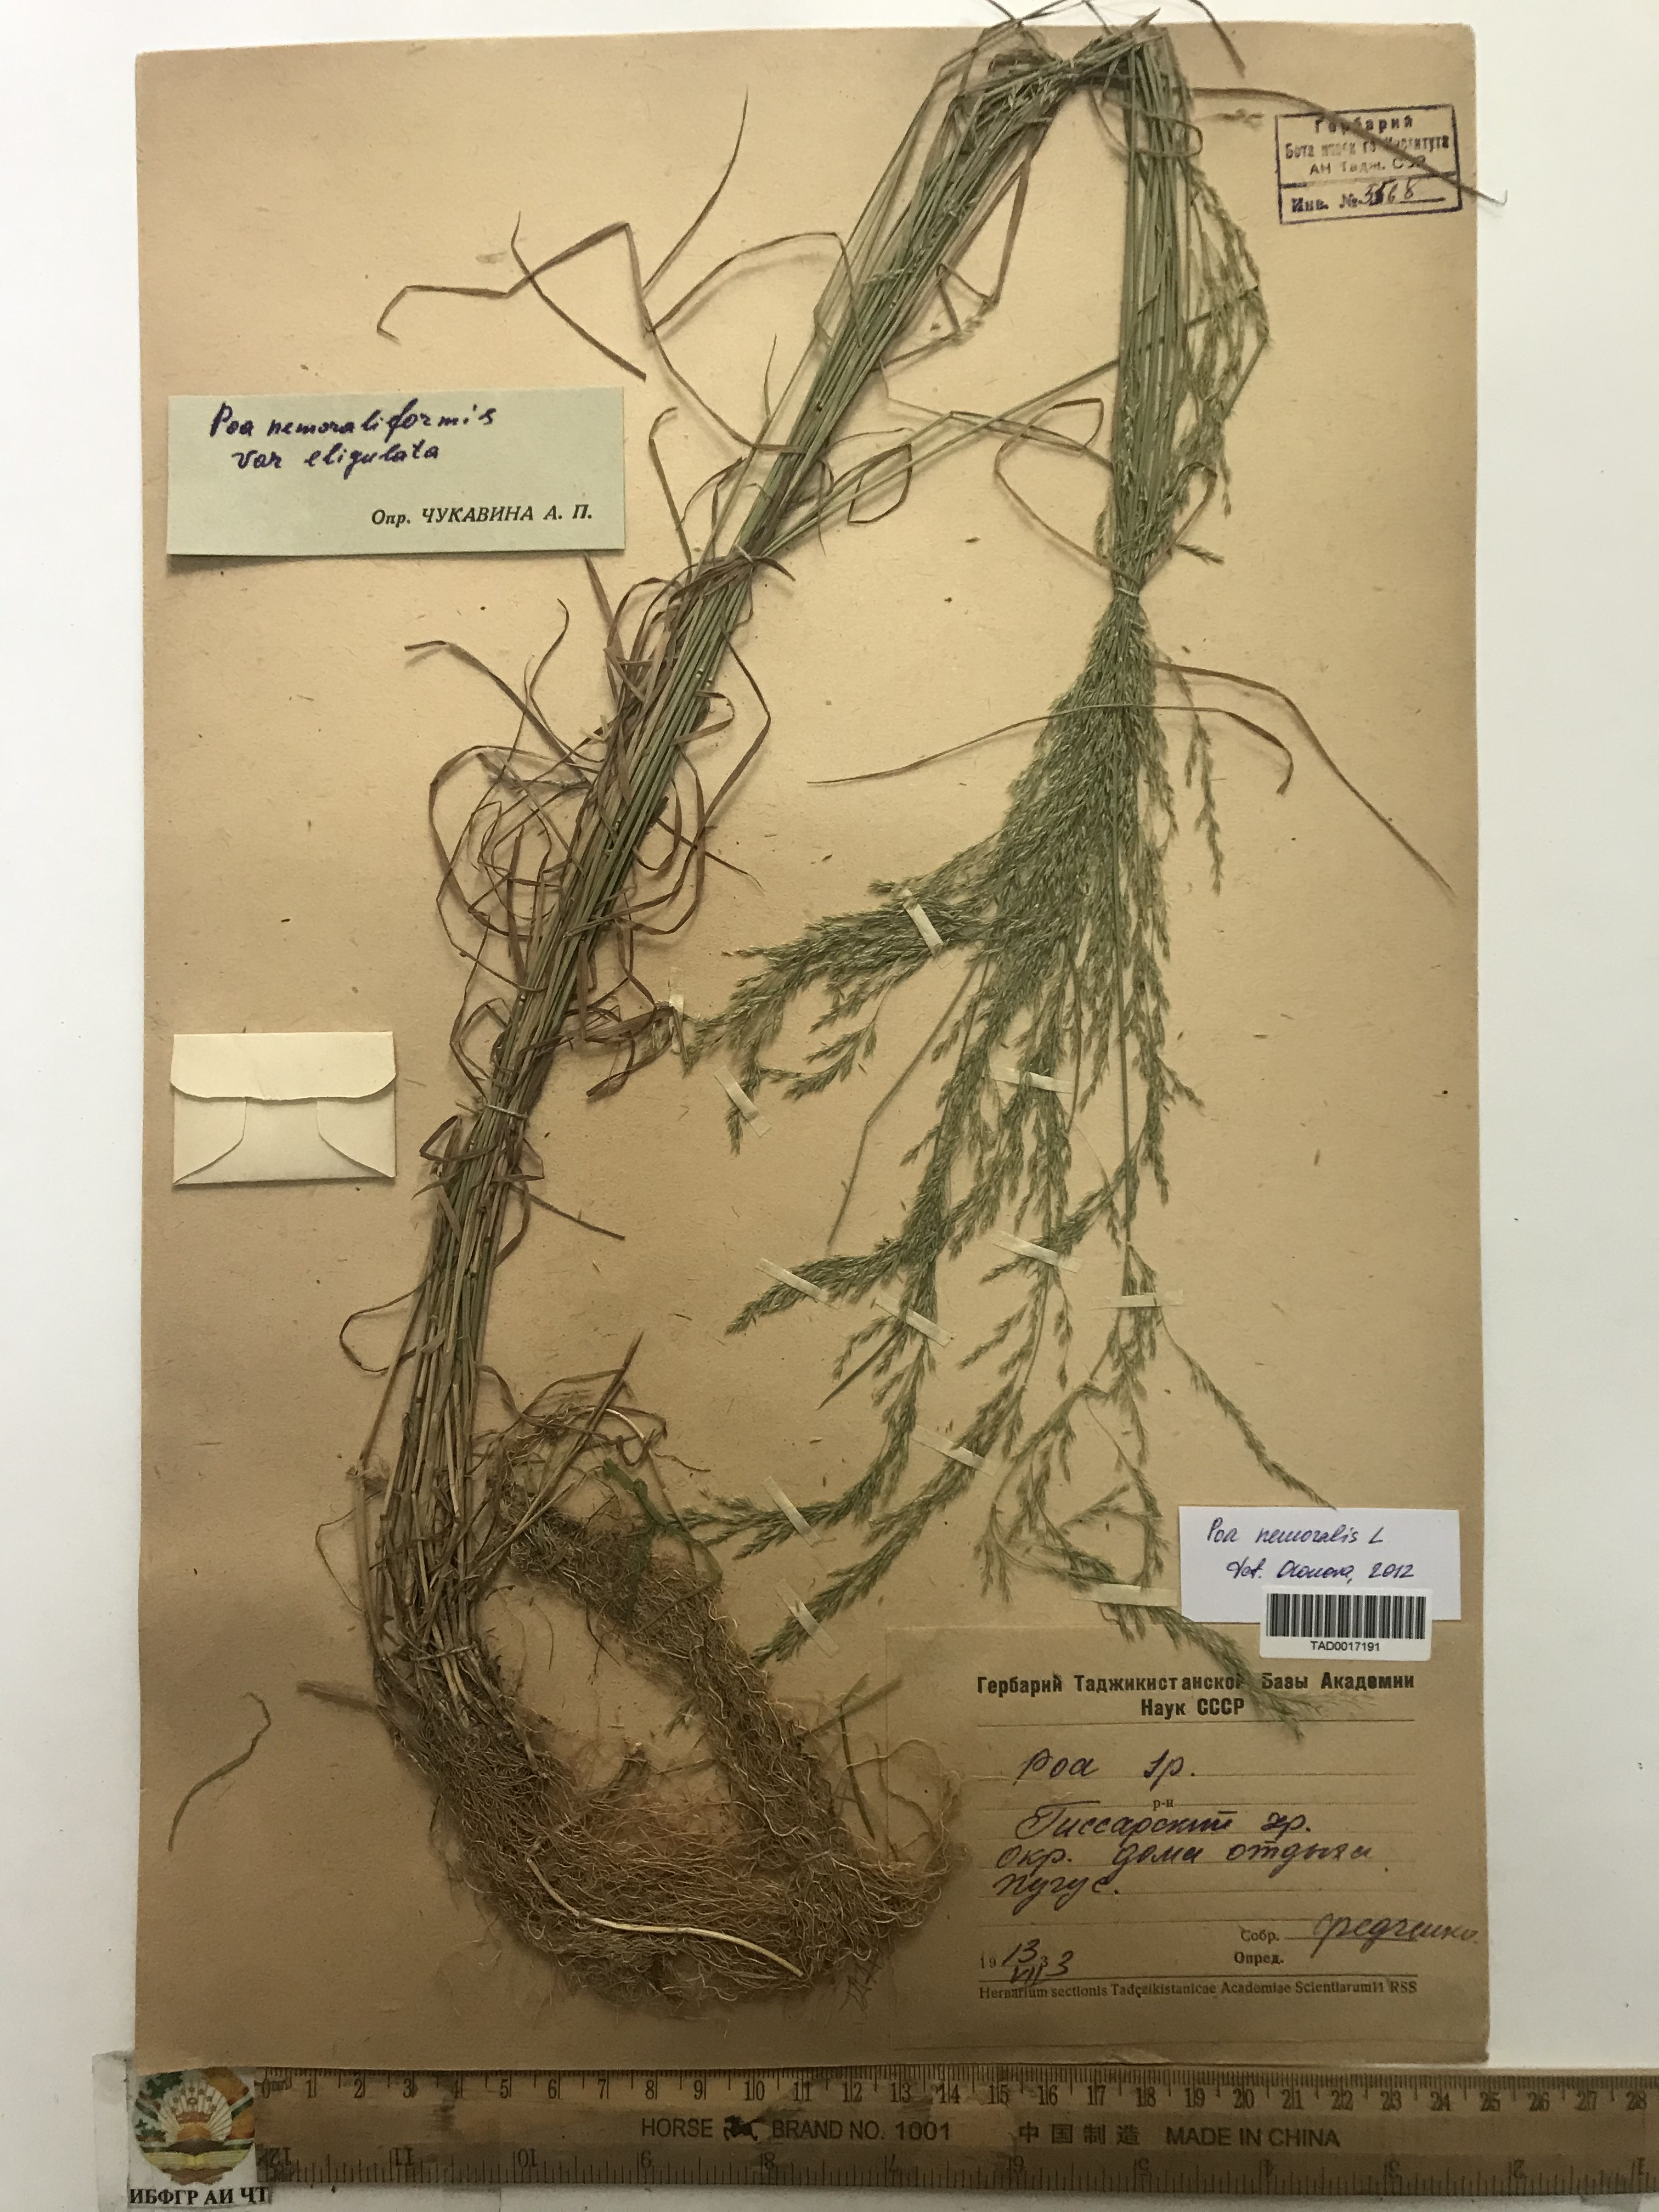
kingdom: Plantae
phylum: Tracheophyta
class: Liliopsida
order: Poales
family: Poaceae
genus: Poa
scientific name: Poa nemoralis
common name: Wood bluegrass
